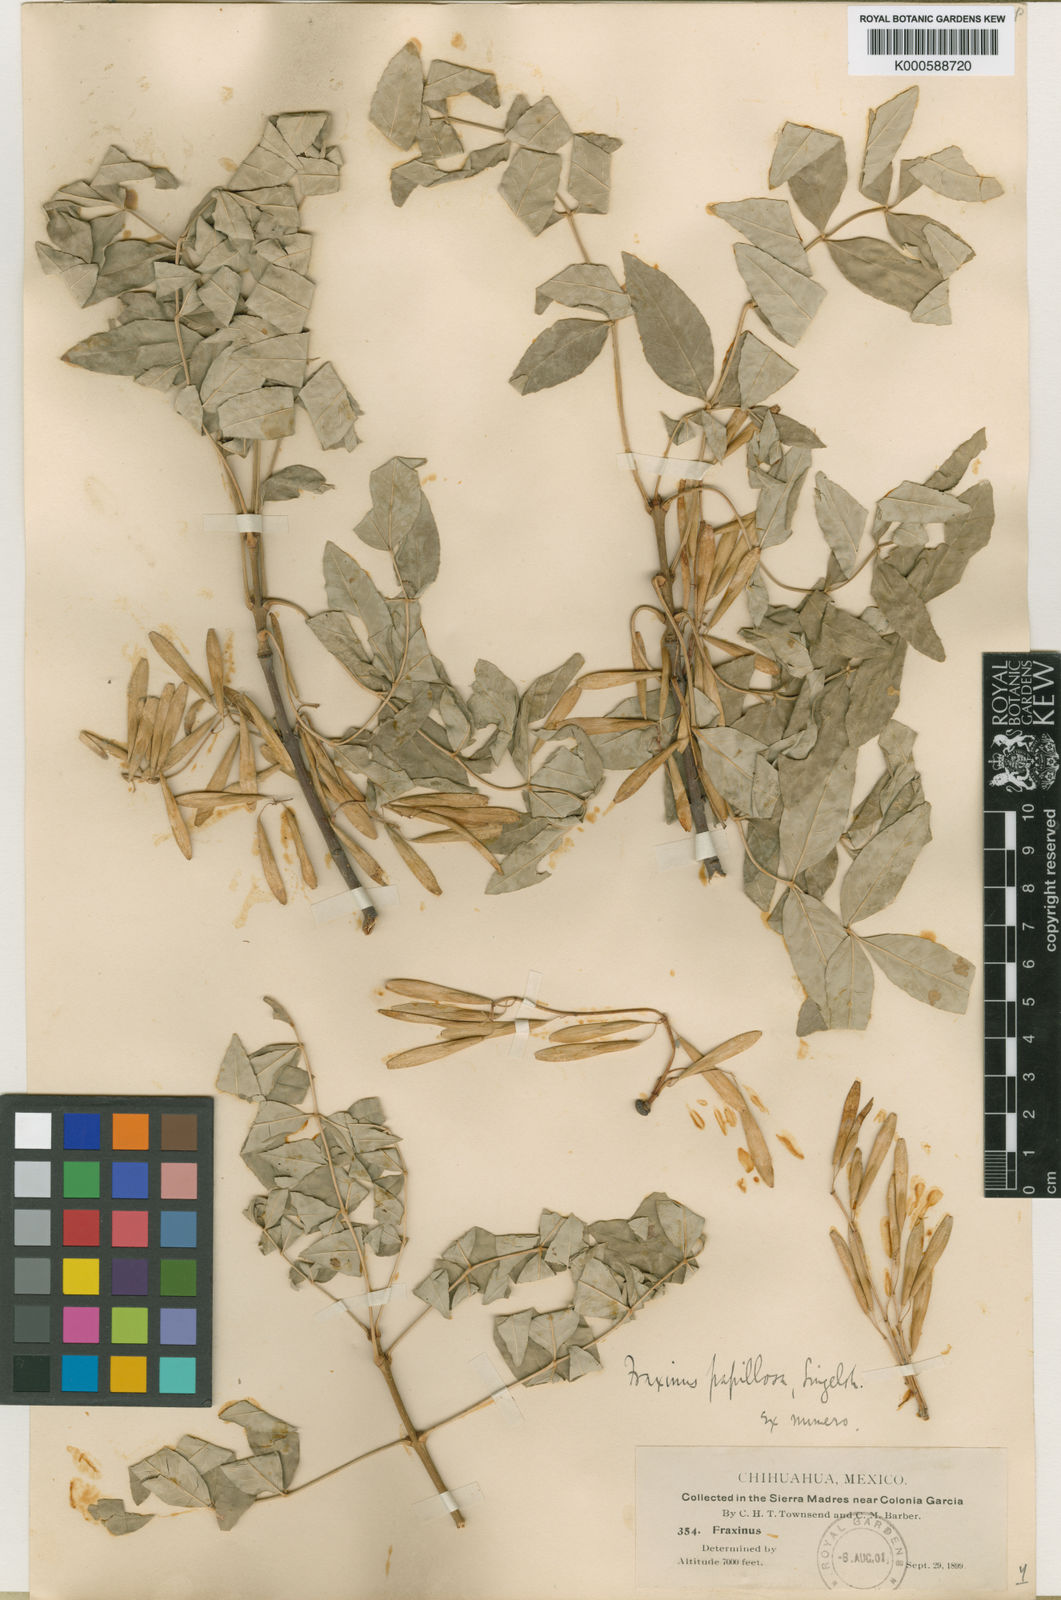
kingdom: Plantae
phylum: Tracheophyta
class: Magnoliopsida
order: Lamiales
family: Oleaceae
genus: Fraxinus
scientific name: Fraxinus papillosa
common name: Chihuahua ash
